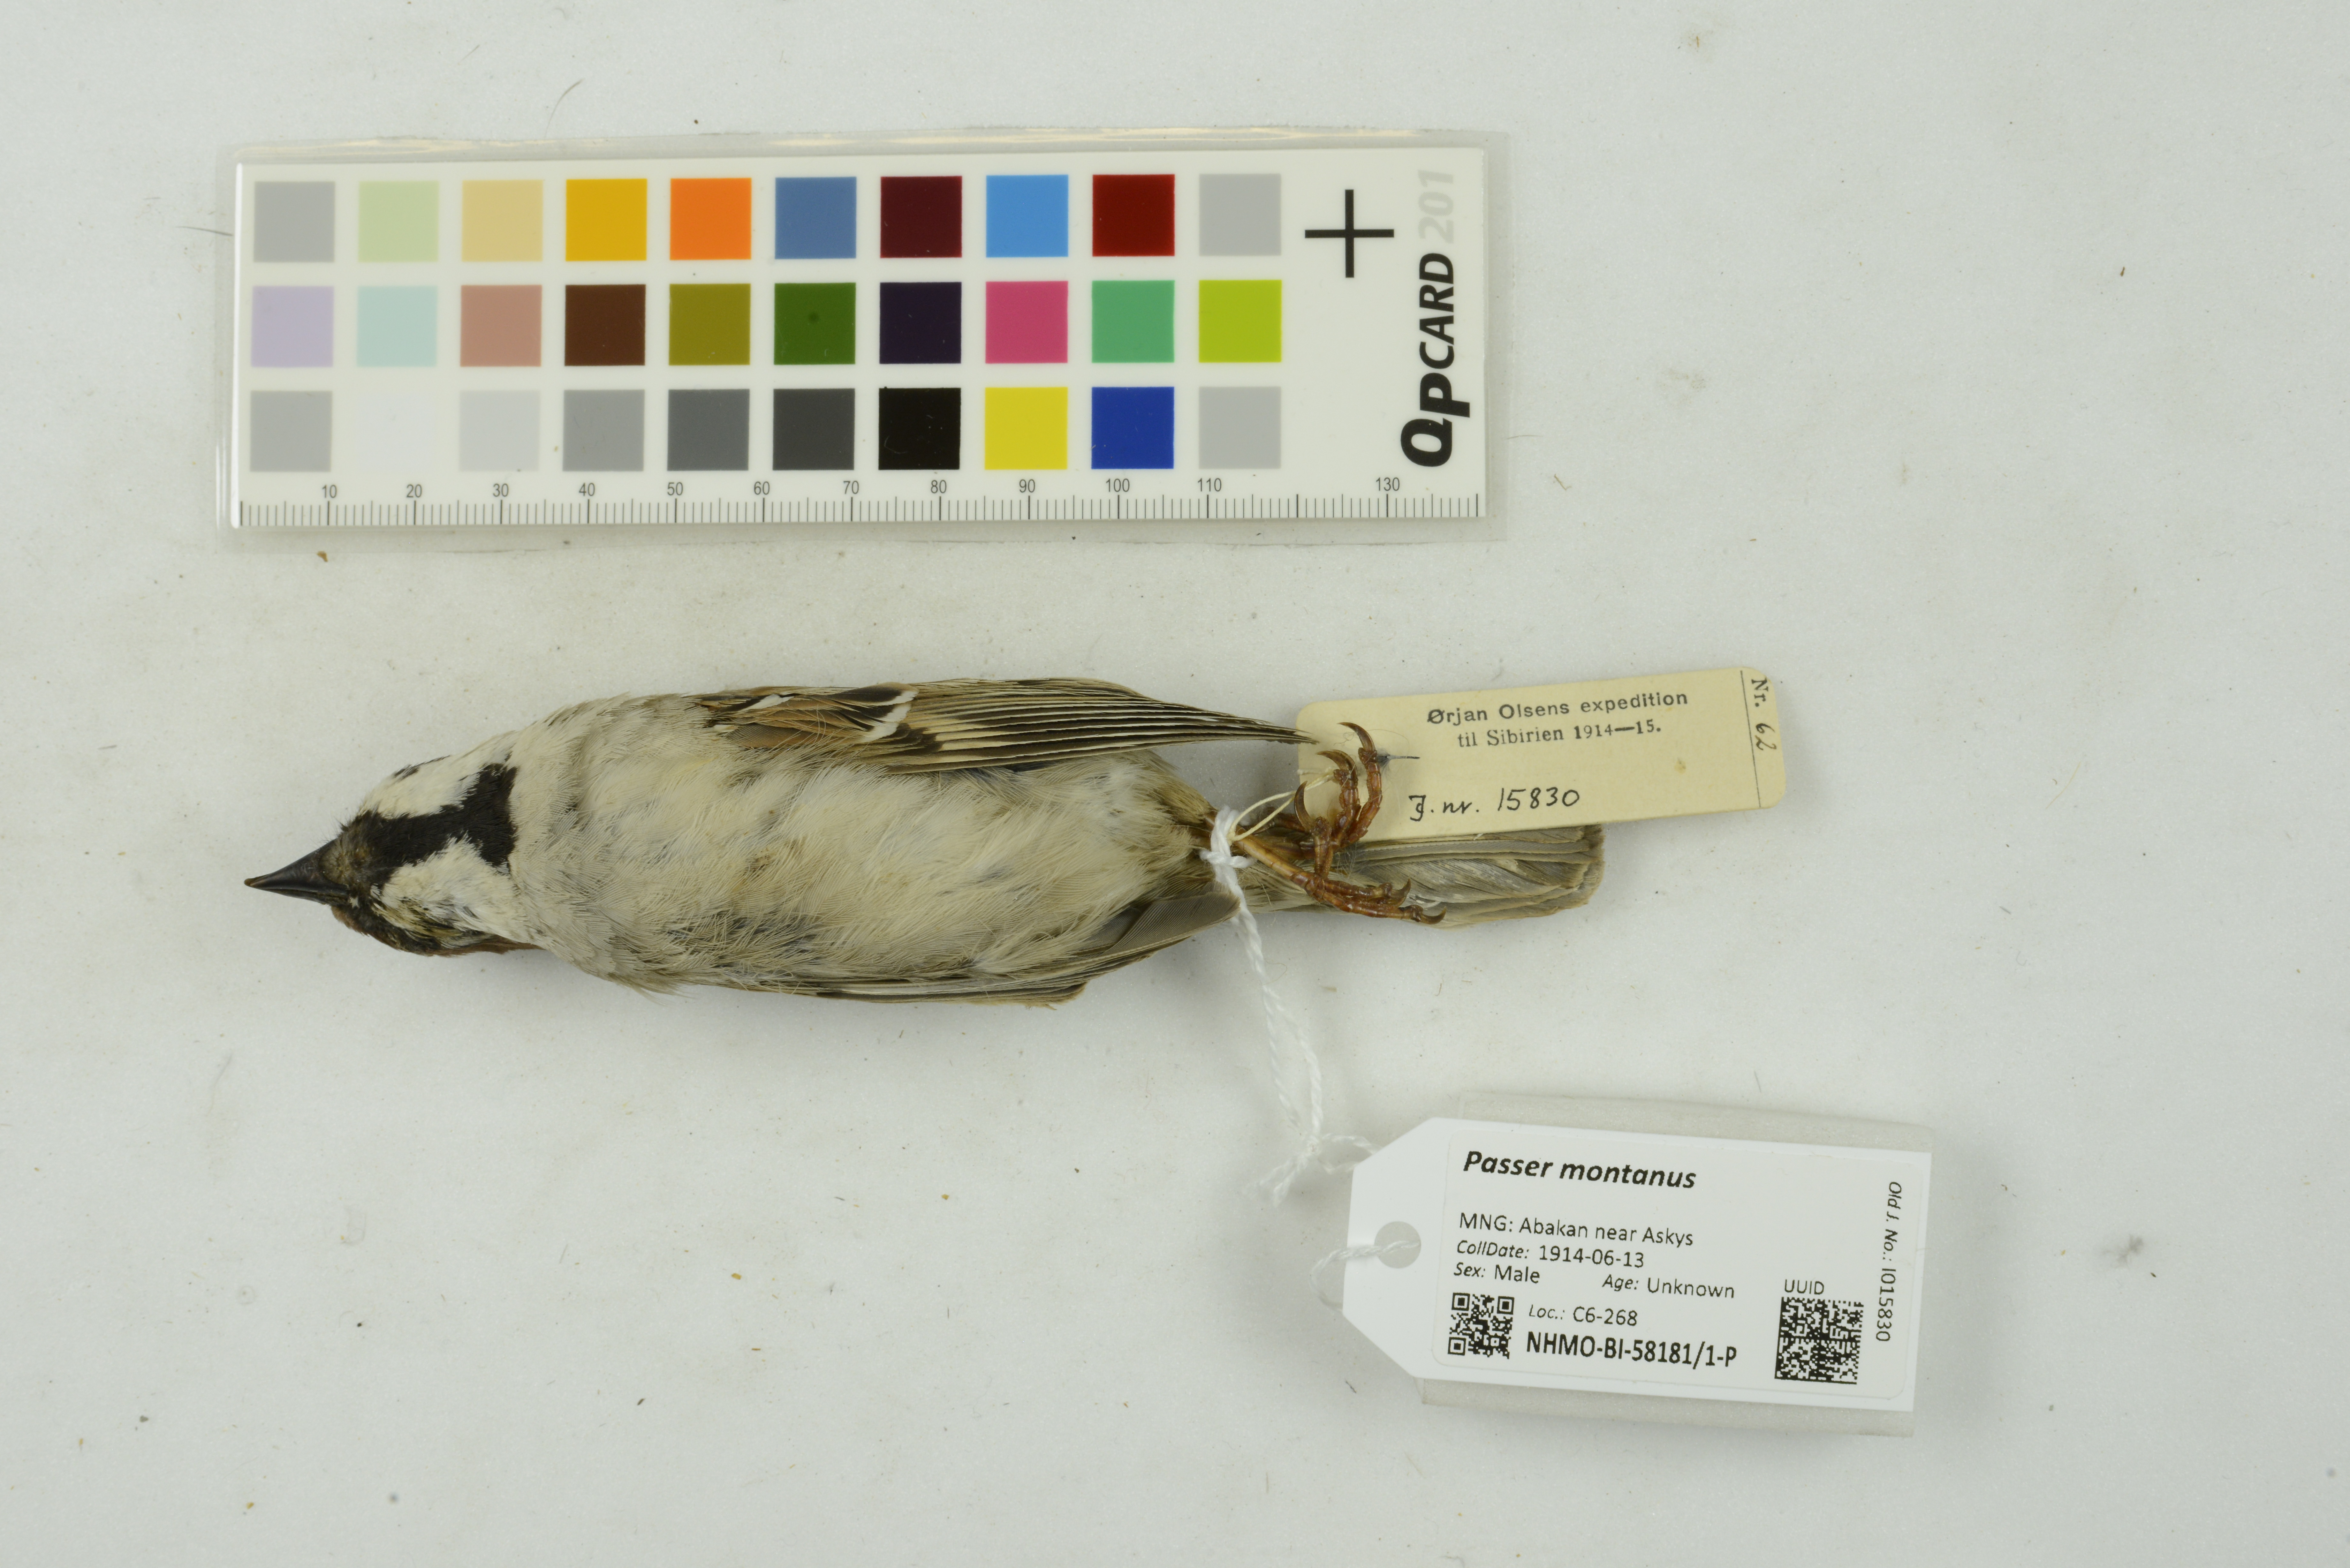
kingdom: Animalia
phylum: Chordata
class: Aves
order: Passeriformes
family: Passeridae
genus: Passer
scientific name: Passer montanus
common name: Eurasian tree sparrow
